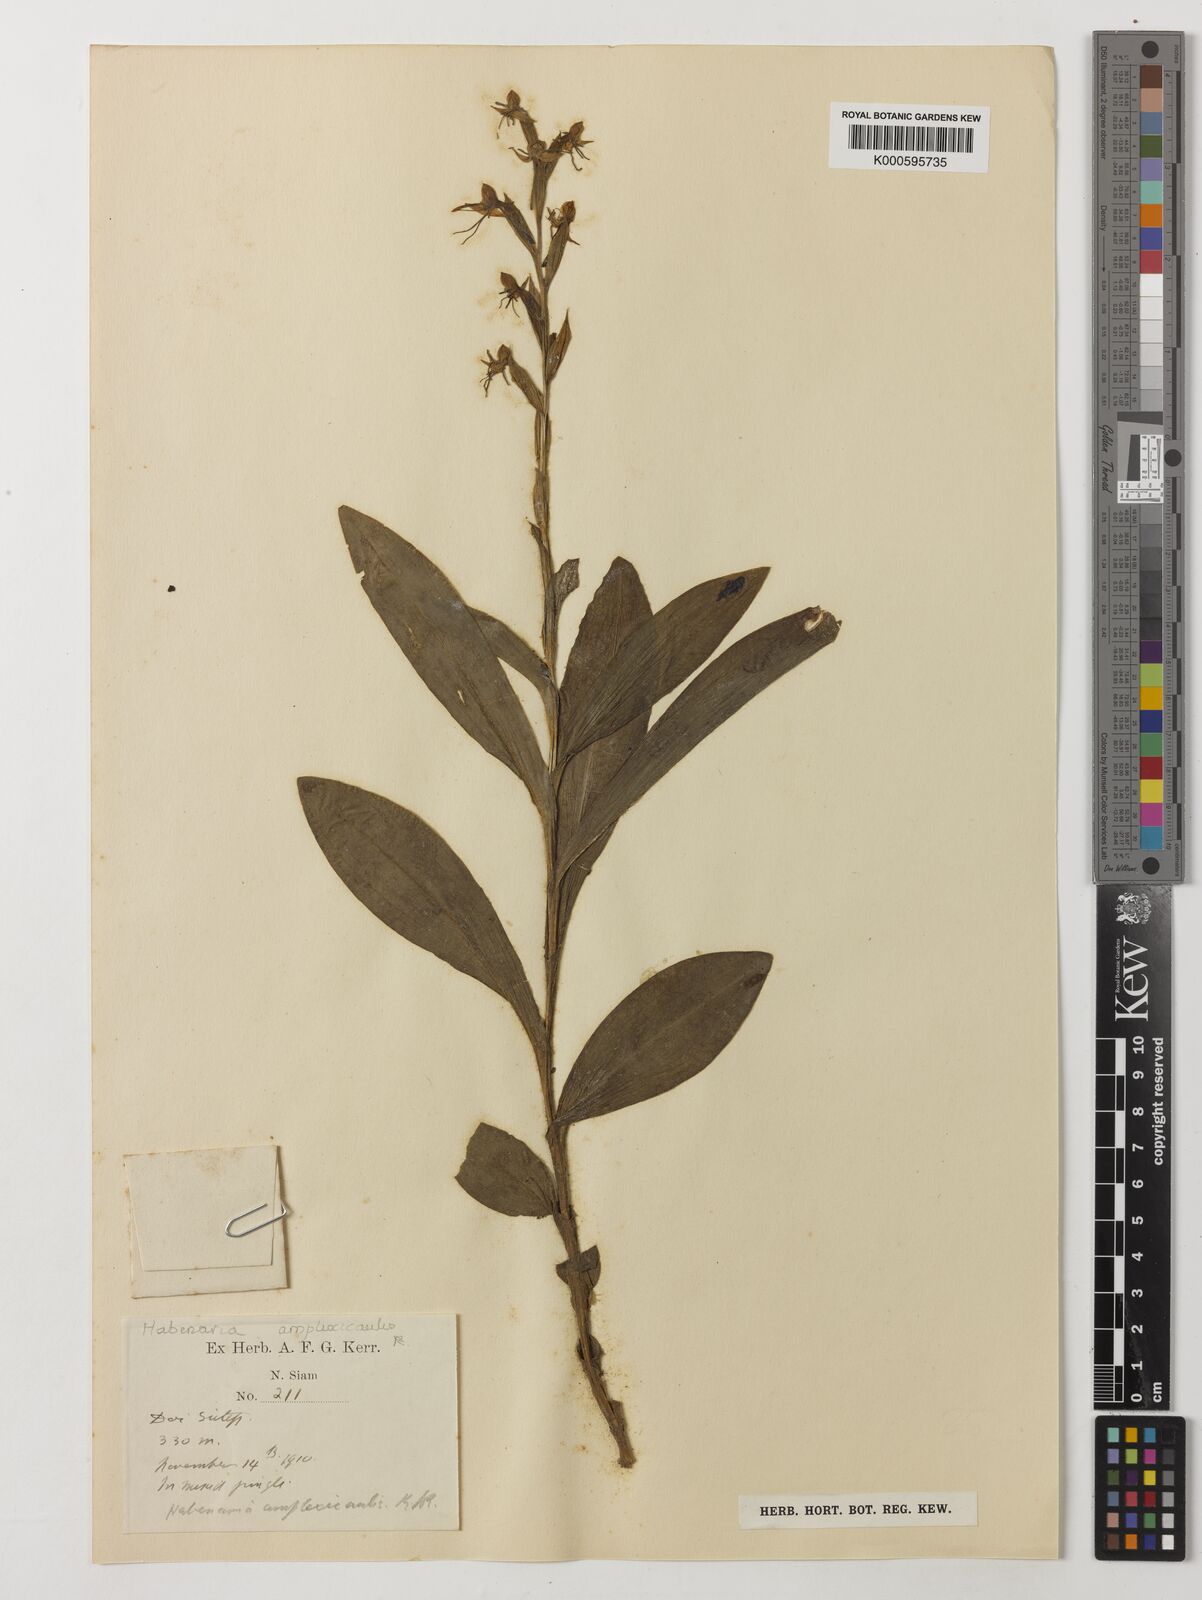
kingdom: Plantae
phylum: Tracheophyta
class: Liliopsida
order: Asparagales
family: Orchidaceae
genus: Habenaria
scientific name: Habenaria amplexicaulis
